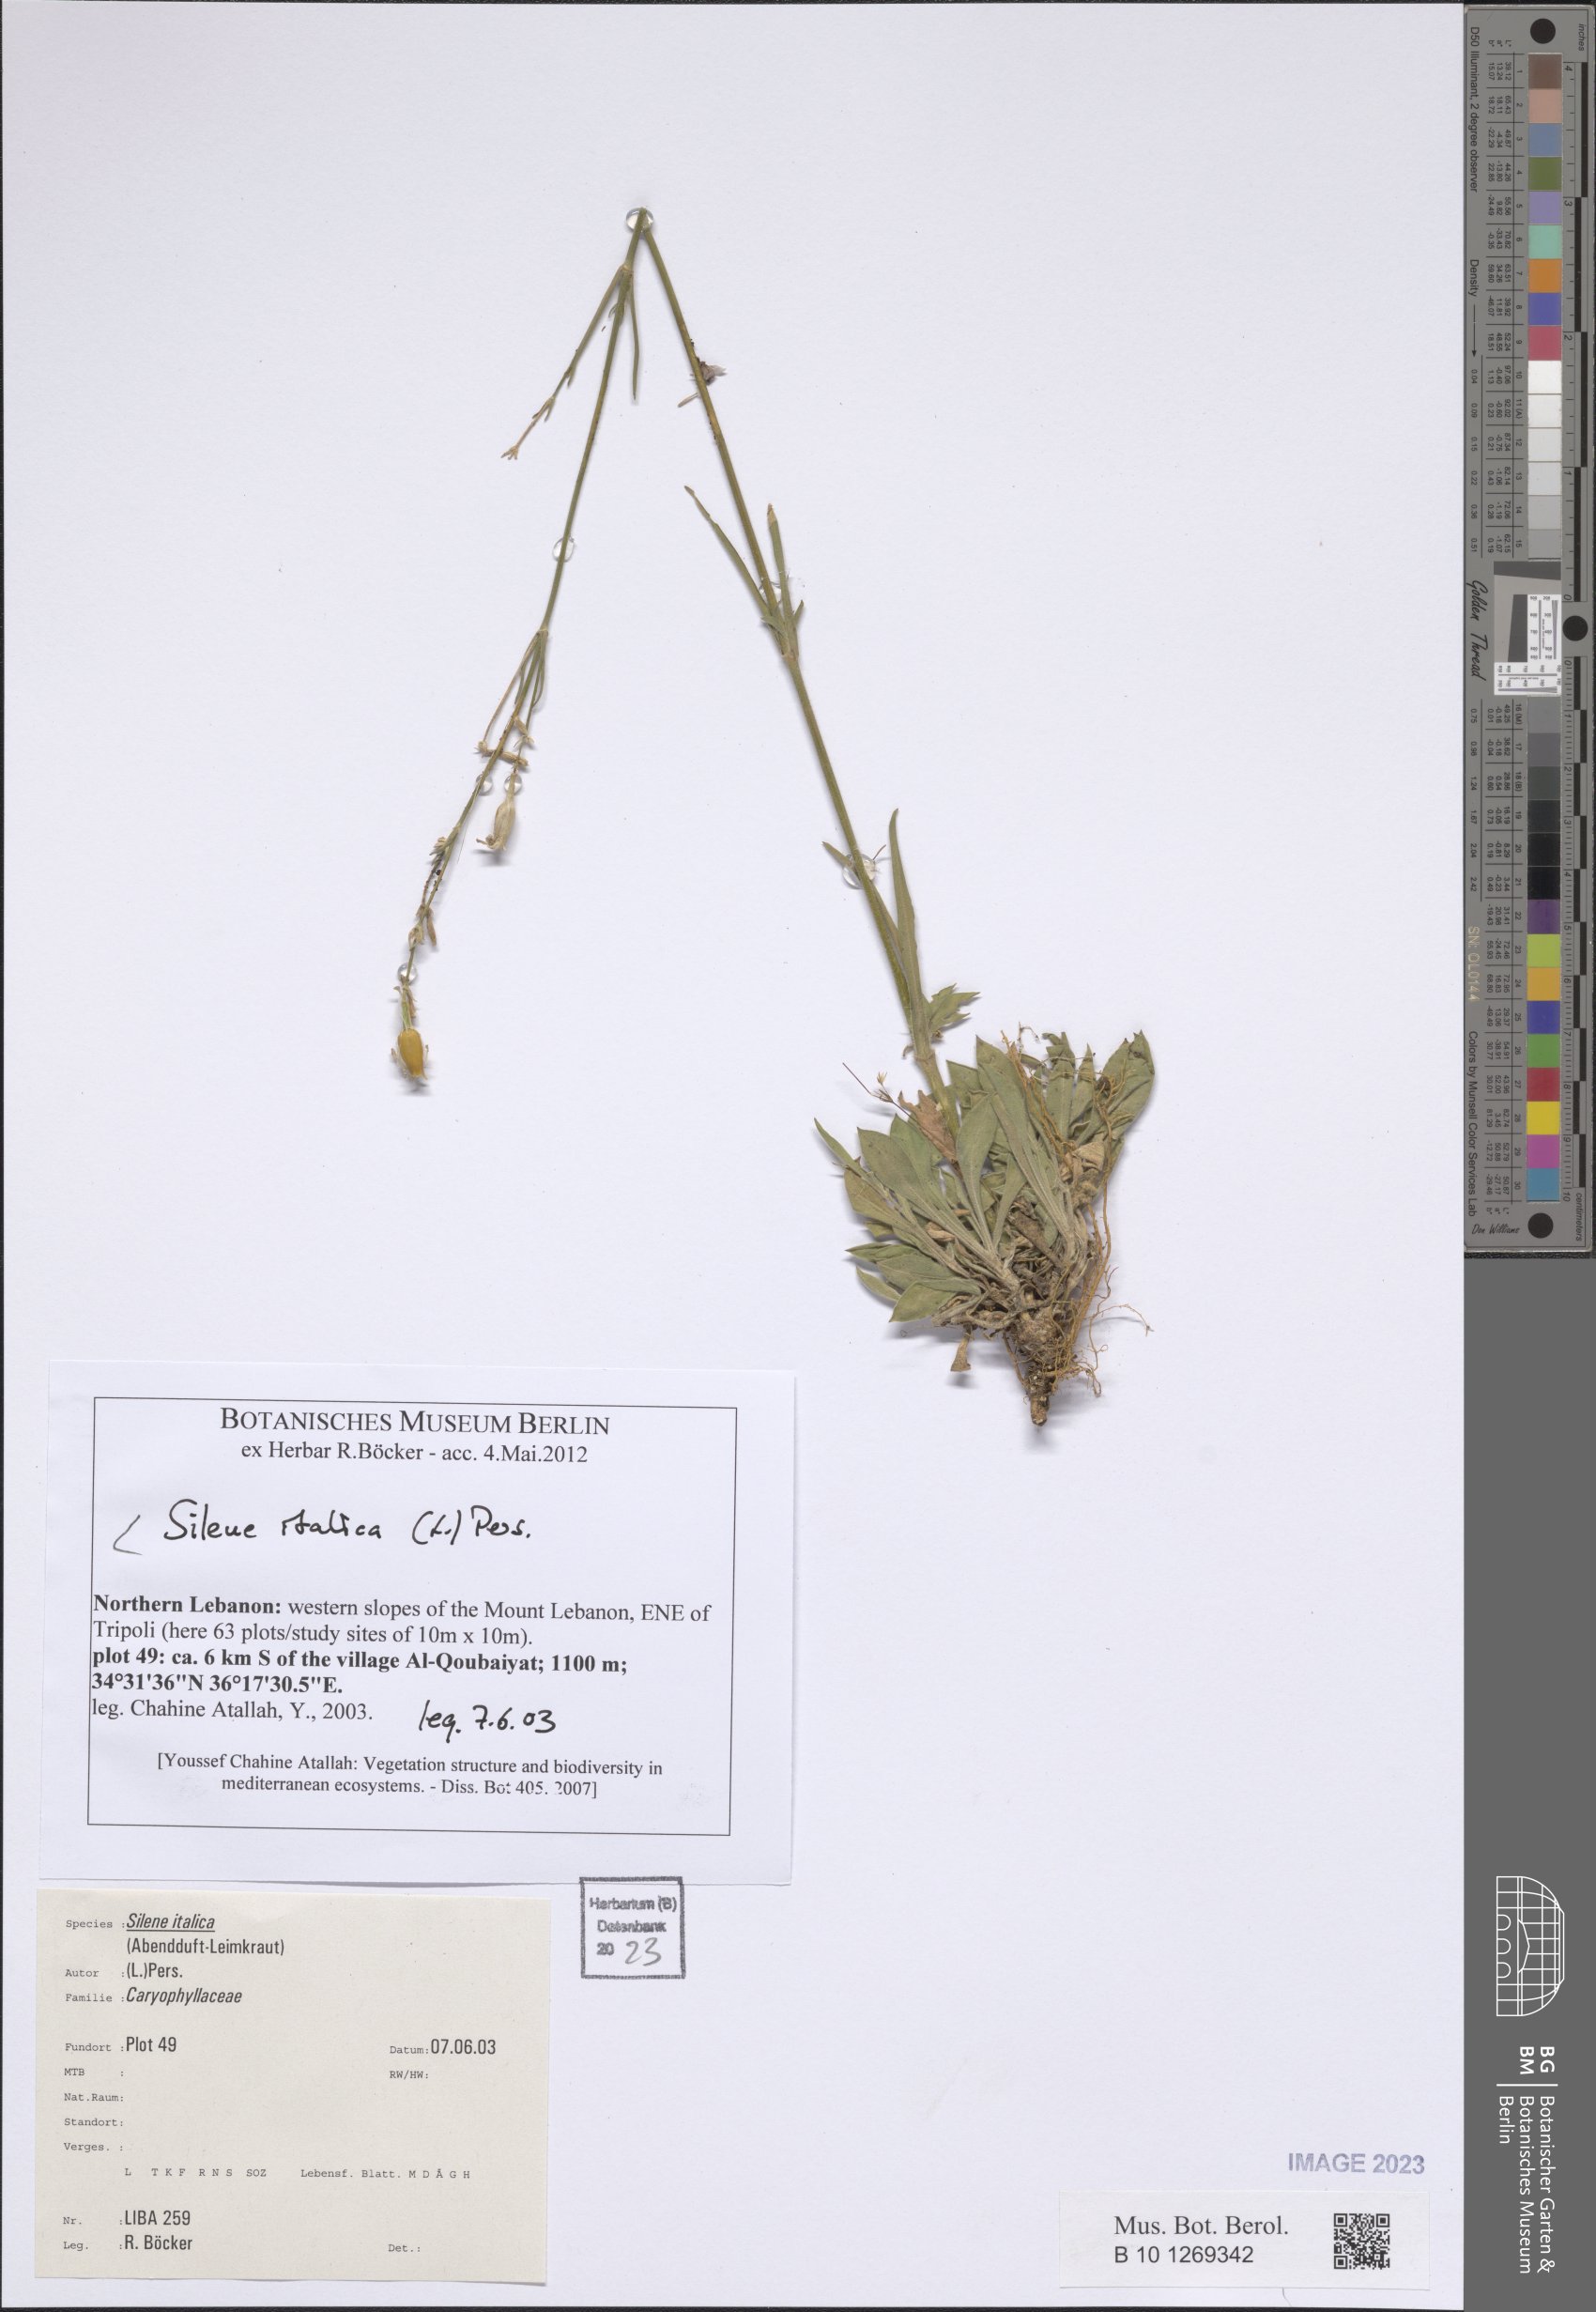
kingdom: Plantae
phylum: Tracheophyta
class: Magnoliopsida
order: Caryophyllales
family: Caryophyllaceae
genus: Silene
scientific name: Silene italica
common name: Italian catchfly
